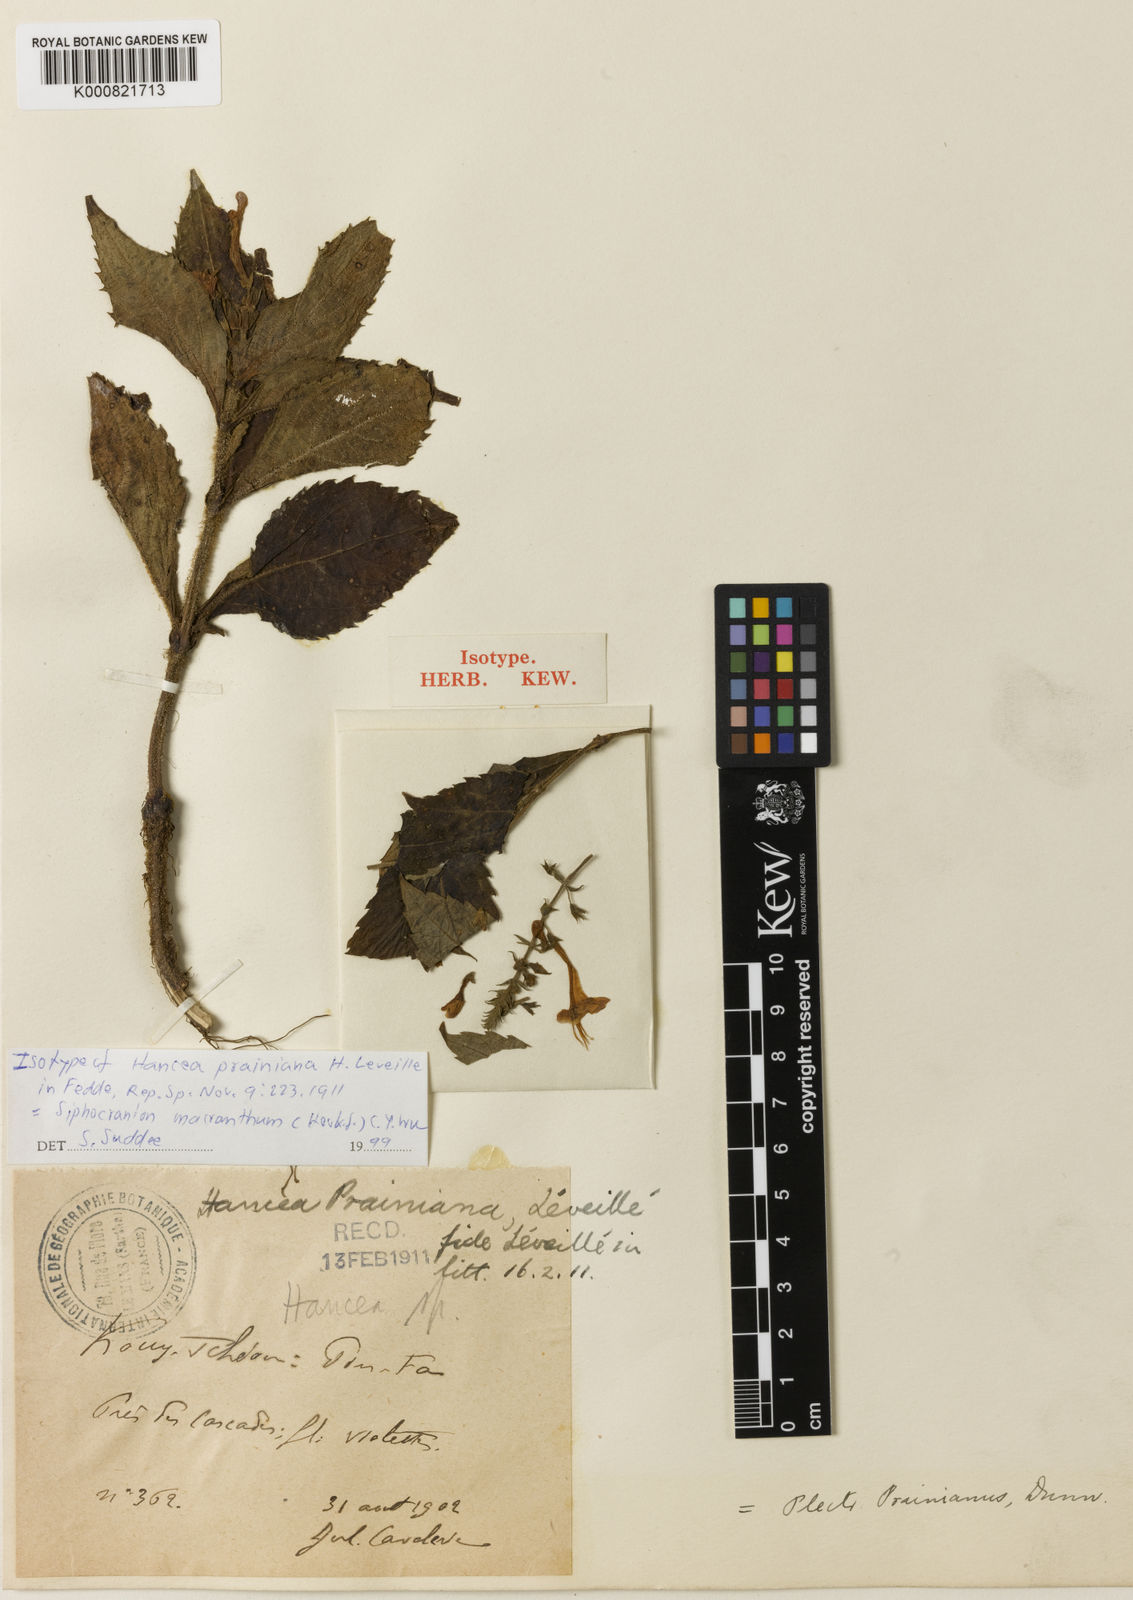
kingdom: Plantae
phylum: Tracheophyta
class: Magnoliopsida
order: Lamiales
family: Lamiaceae
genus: Isodon
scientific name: Isodon
